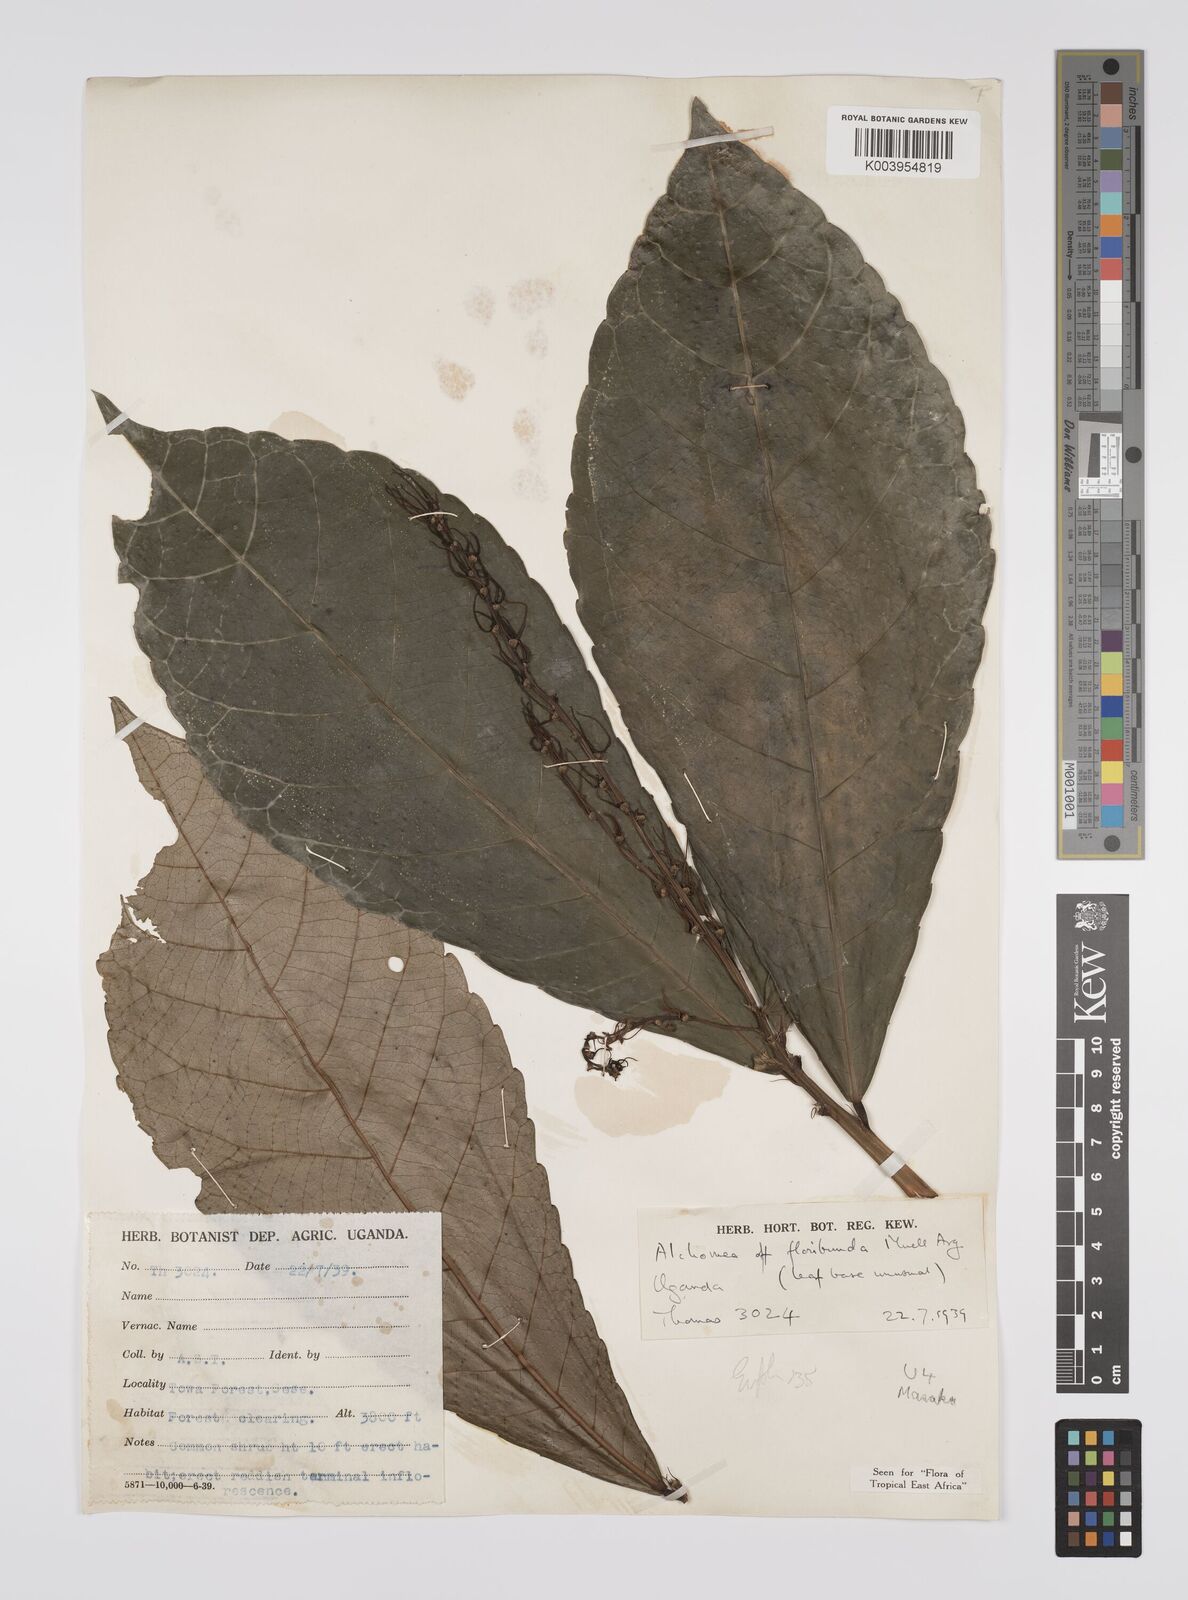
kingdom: Plantae
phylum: Tracheophyta
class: Magnoliopsida
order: Malpighiales
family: Euphorbiaceae
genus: Alchornea
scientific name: Alchornea floribunda
